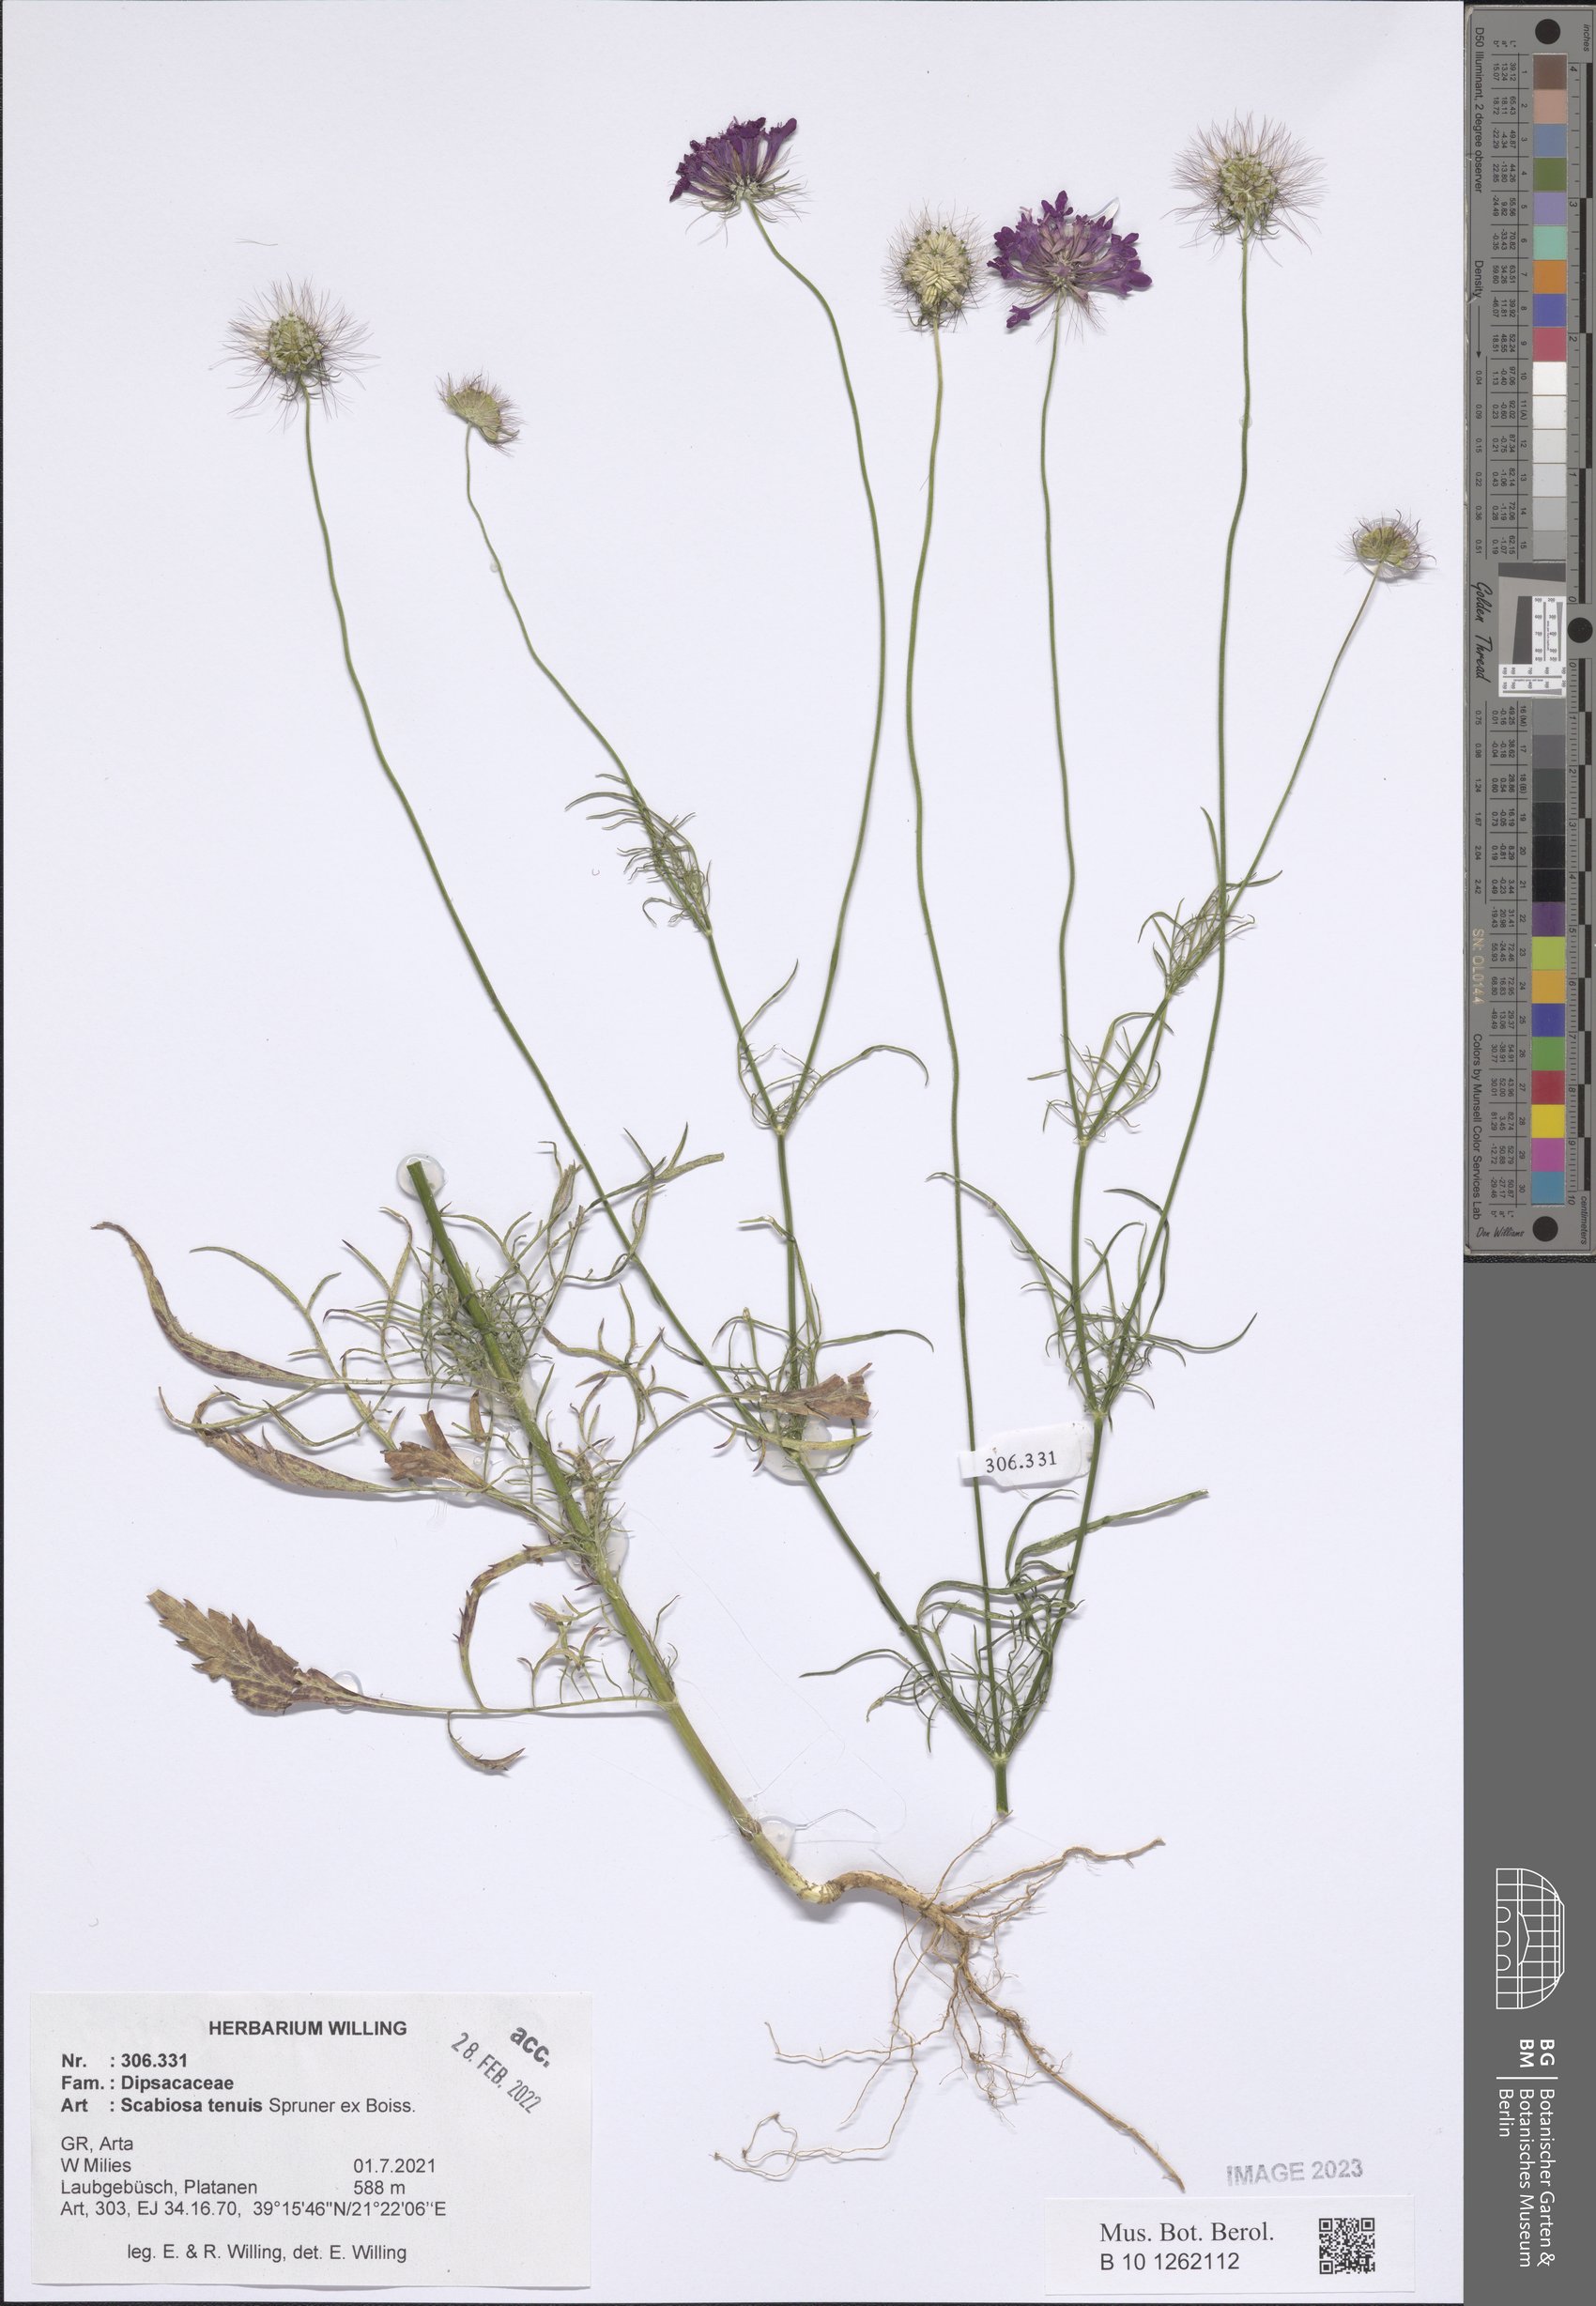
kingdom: Plantae
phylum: Tracheophyta
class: Magnoliopsida
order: Dipsacales
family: Caprifoliaceae
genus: Scabiosa
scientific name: Scabiosa tenuis
